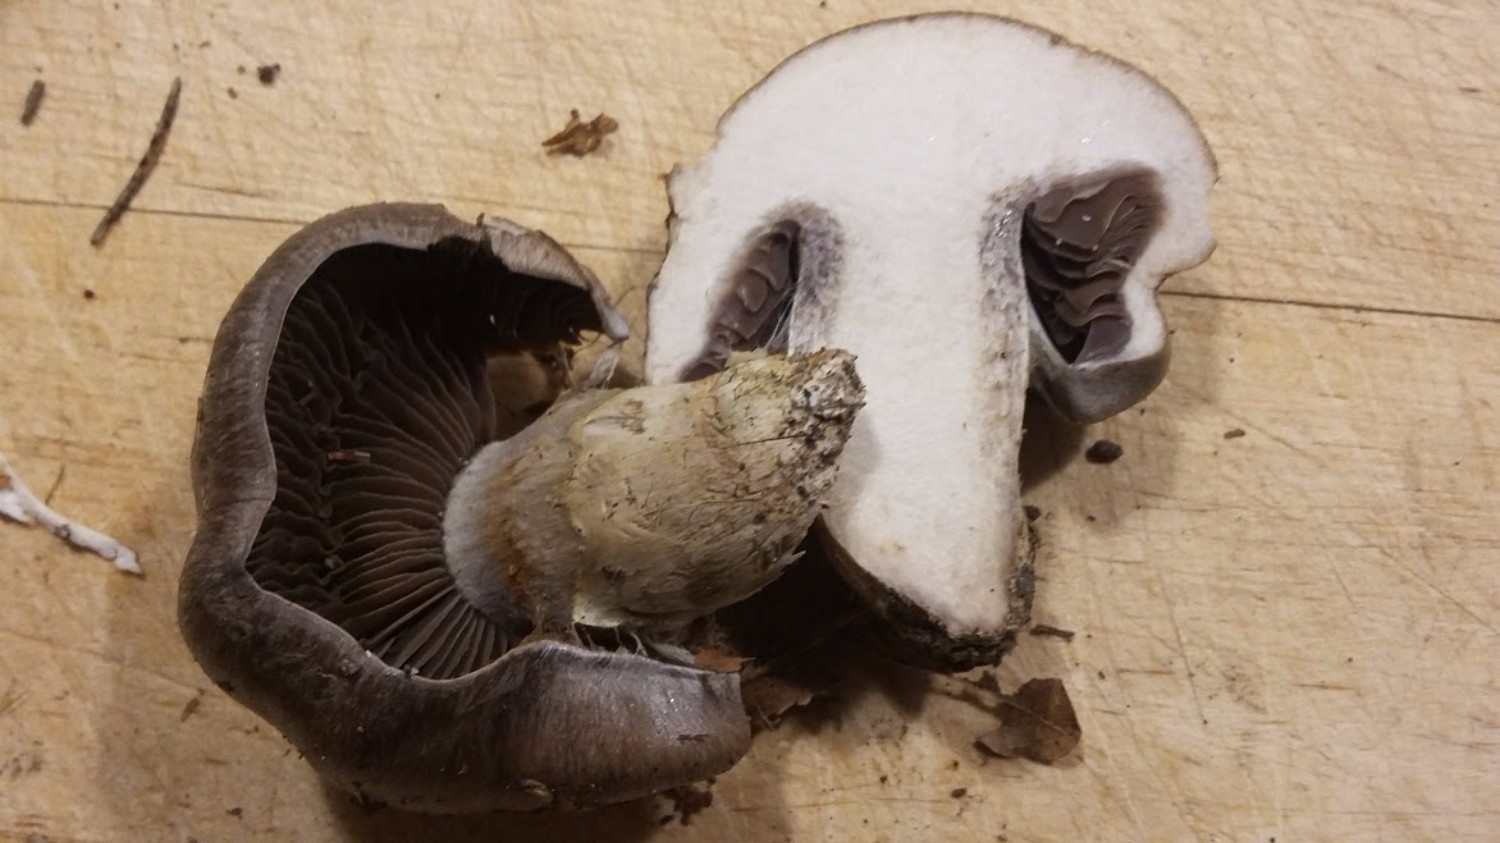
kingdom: Fungi
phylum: Basidiomycota
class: Agaricomycetes
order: Agaricales
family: Cortinariaceae
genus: Cortinarius
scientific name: Cortinarius
